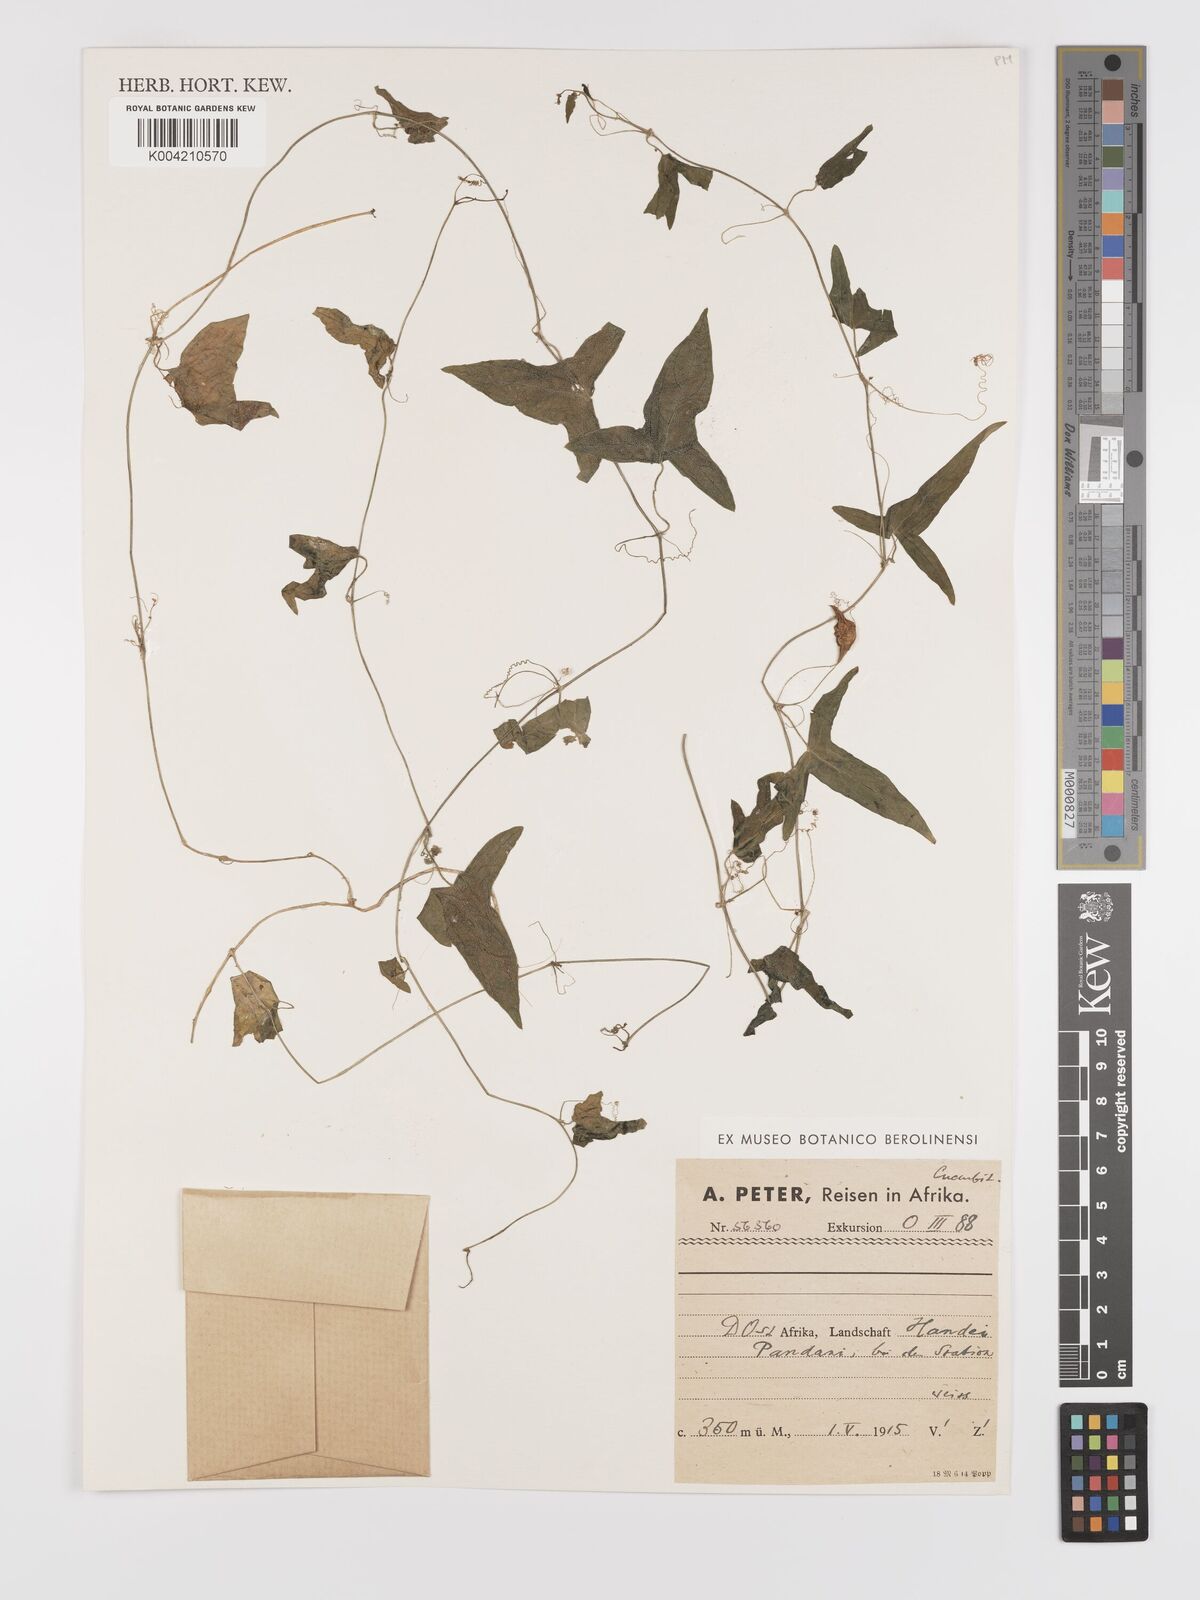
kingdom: Plantae
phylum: Tracheophyta
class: Magnoliopsida
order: Cucurbitales
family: Cucurbitaceae
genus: Zehneria
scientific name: Zehneria thwaitesii
